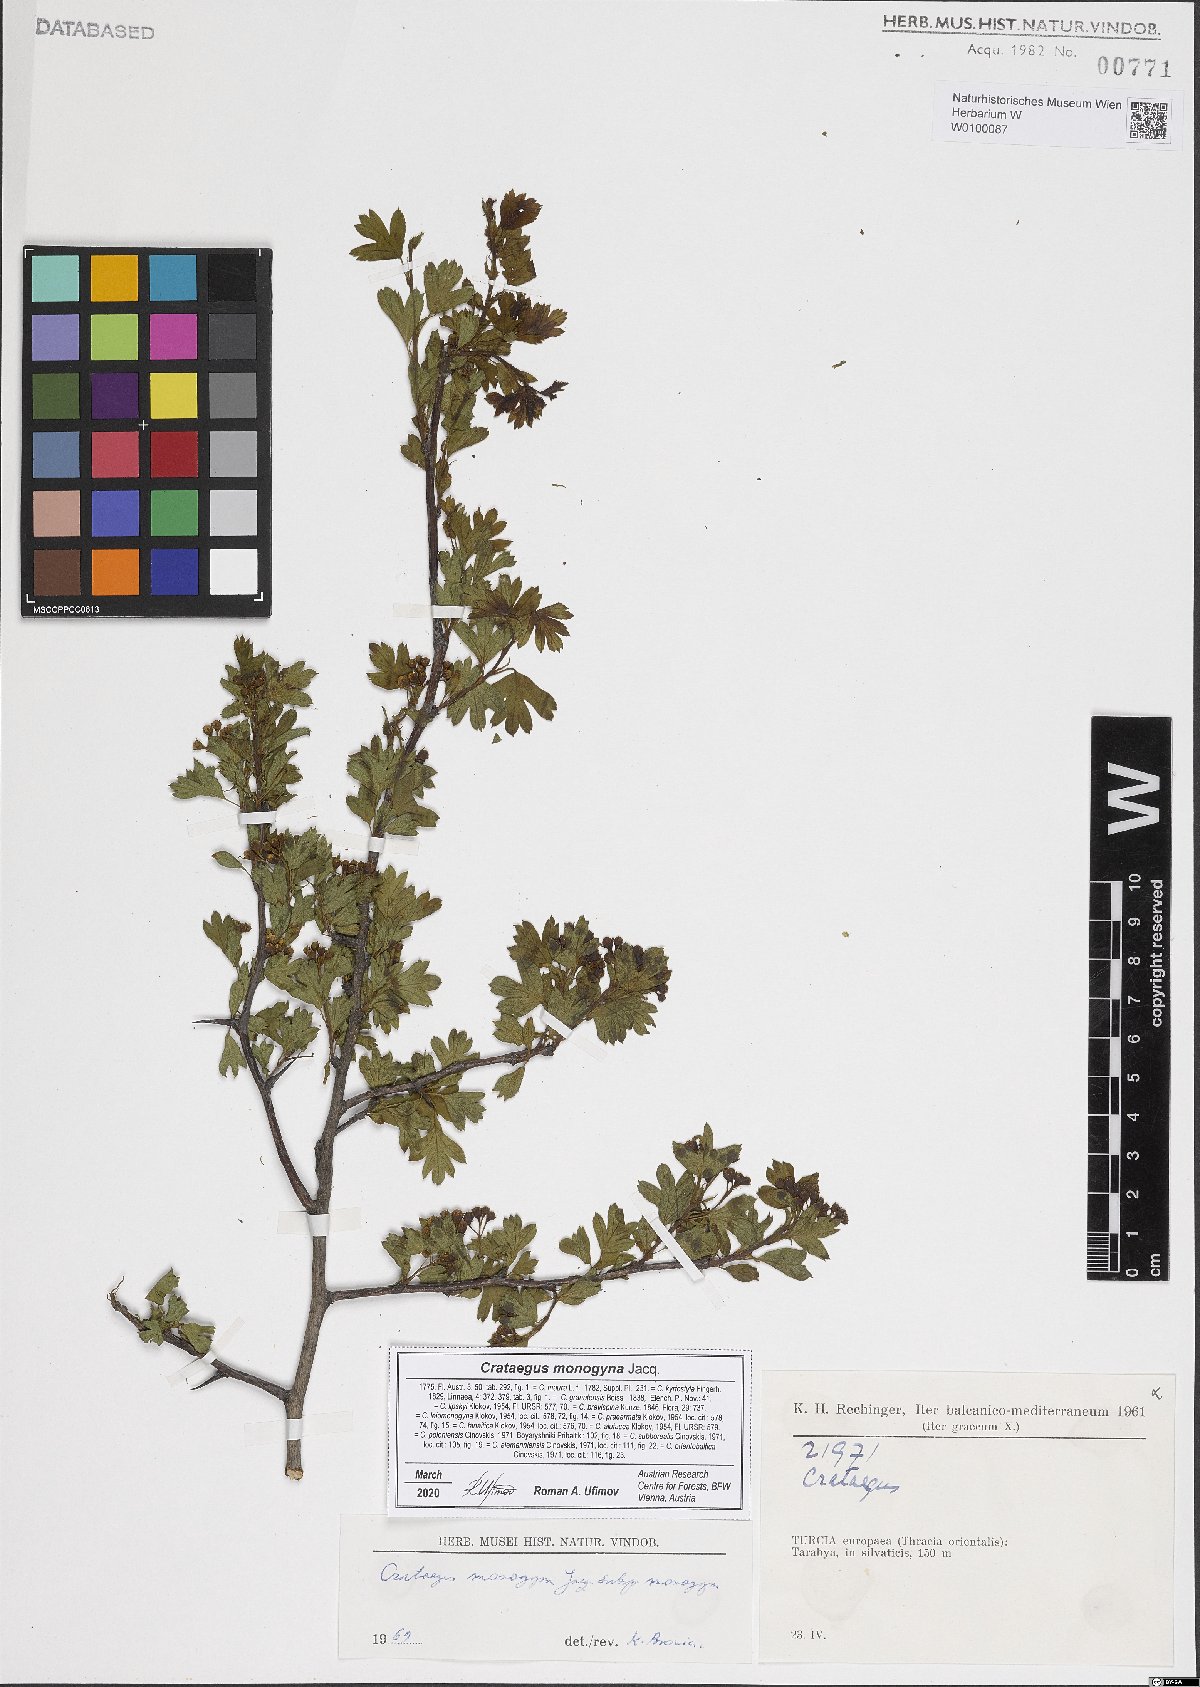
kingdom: Plantae
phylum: Tracheophyta
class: Magnoliopsida
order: Rosales
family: Rosaceae
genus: Crataegus
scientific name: Crataegus monogyna
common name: Hawthorn
